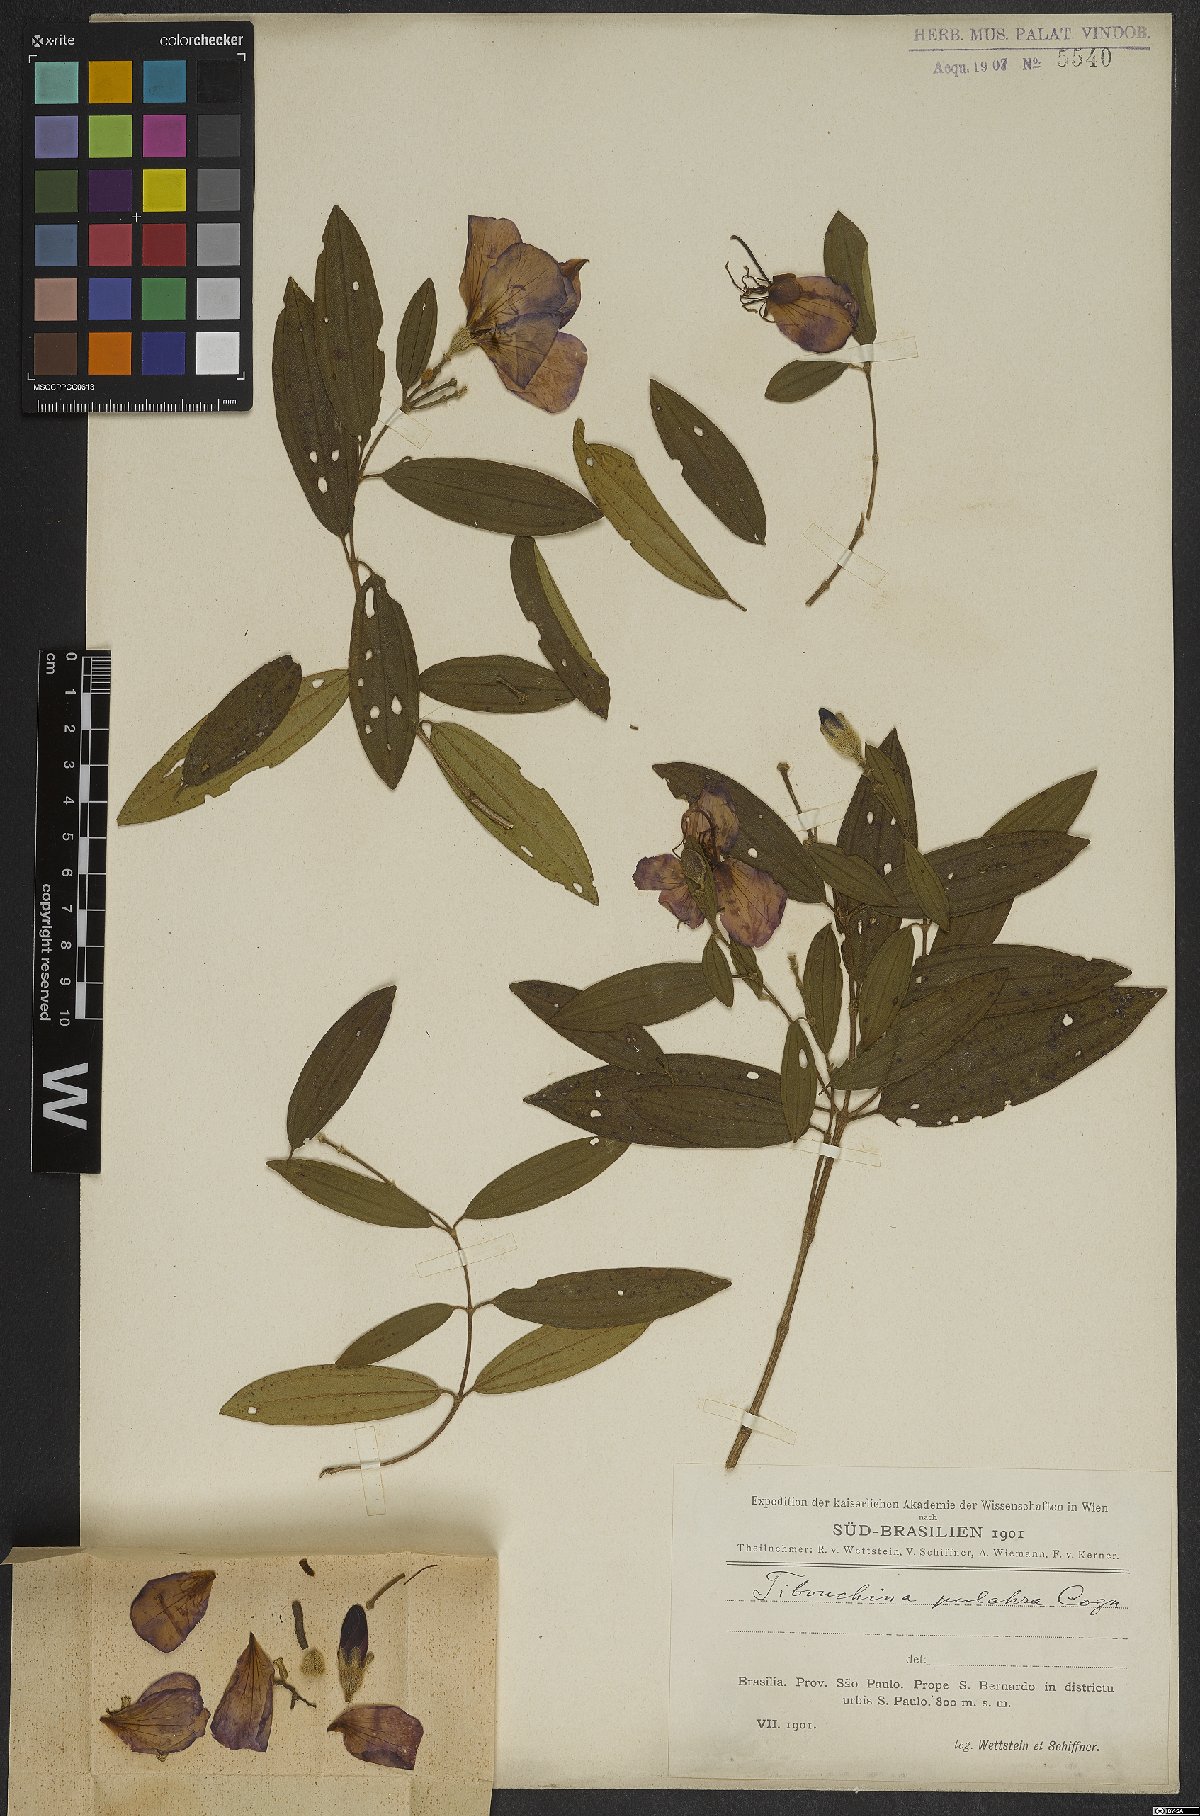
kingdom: Plantae
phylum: Tracheophyta
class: Magnoliopsida
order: Myrtales
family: Melastomataceae
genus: Pleroma
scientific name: Pleroma raddianum
